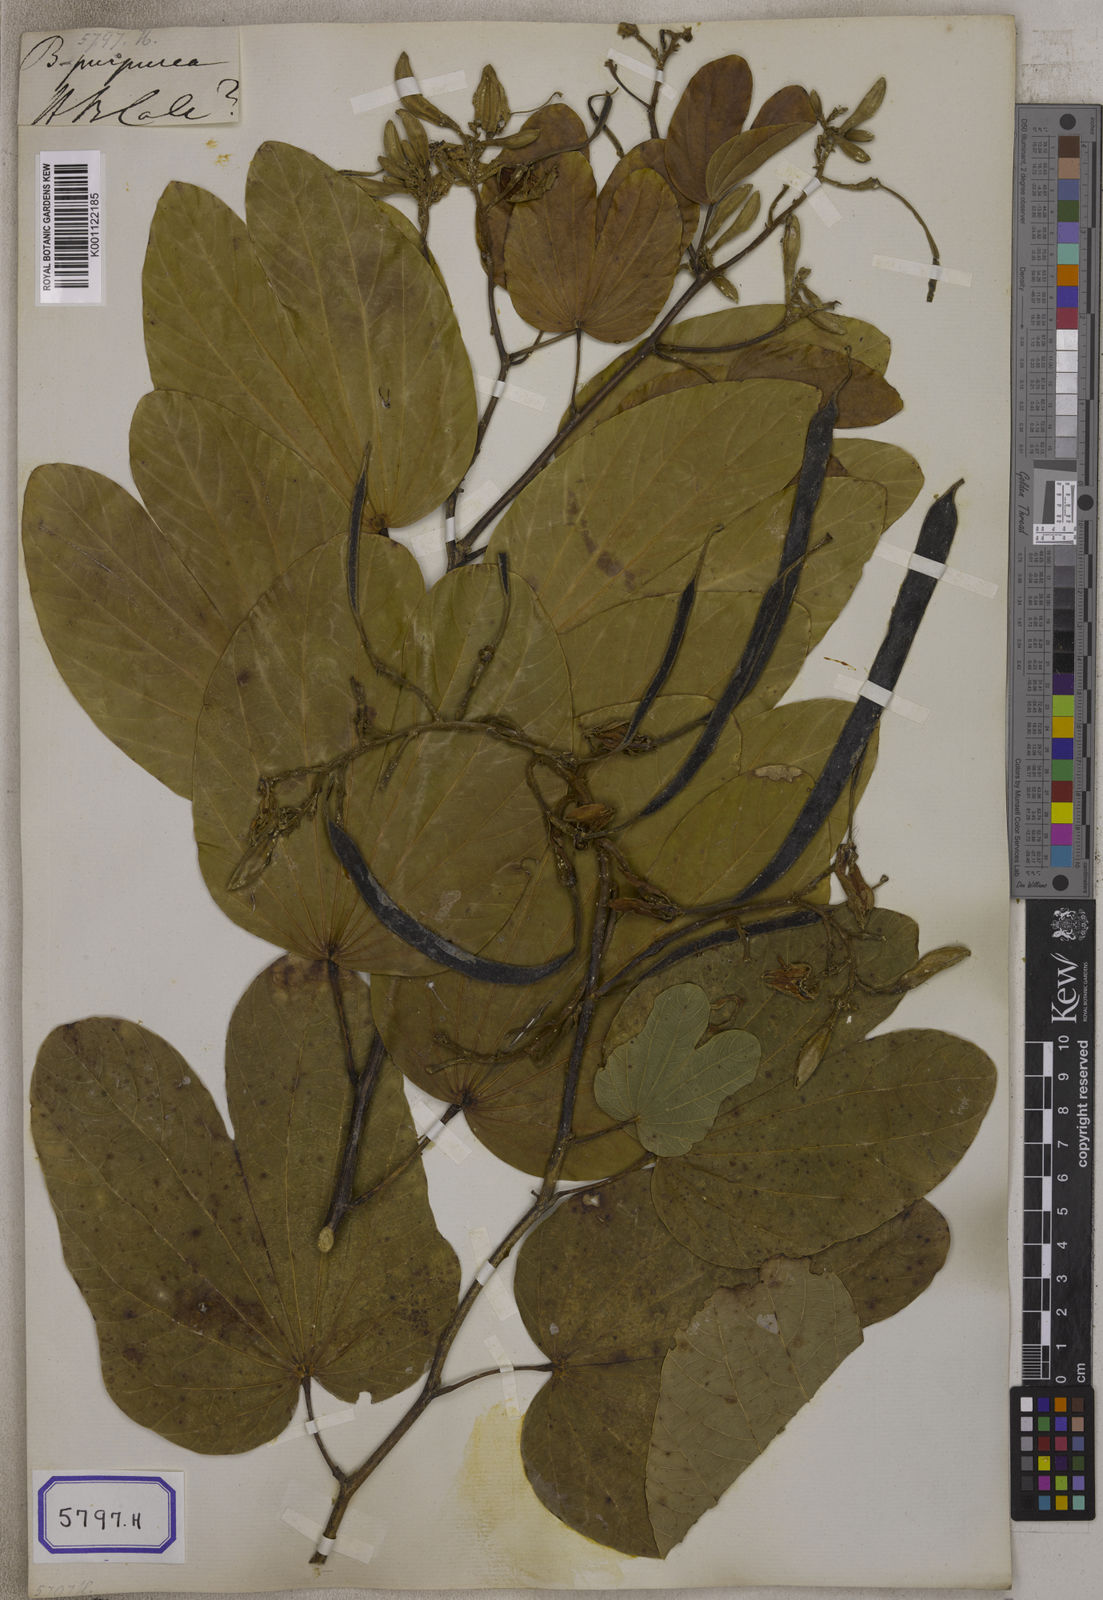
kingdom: Plantae
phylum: Tracheophyta
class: Magnoliopsida
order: Fabales
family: Fabaceae
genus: Bauhinia
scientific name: Bauhinia
